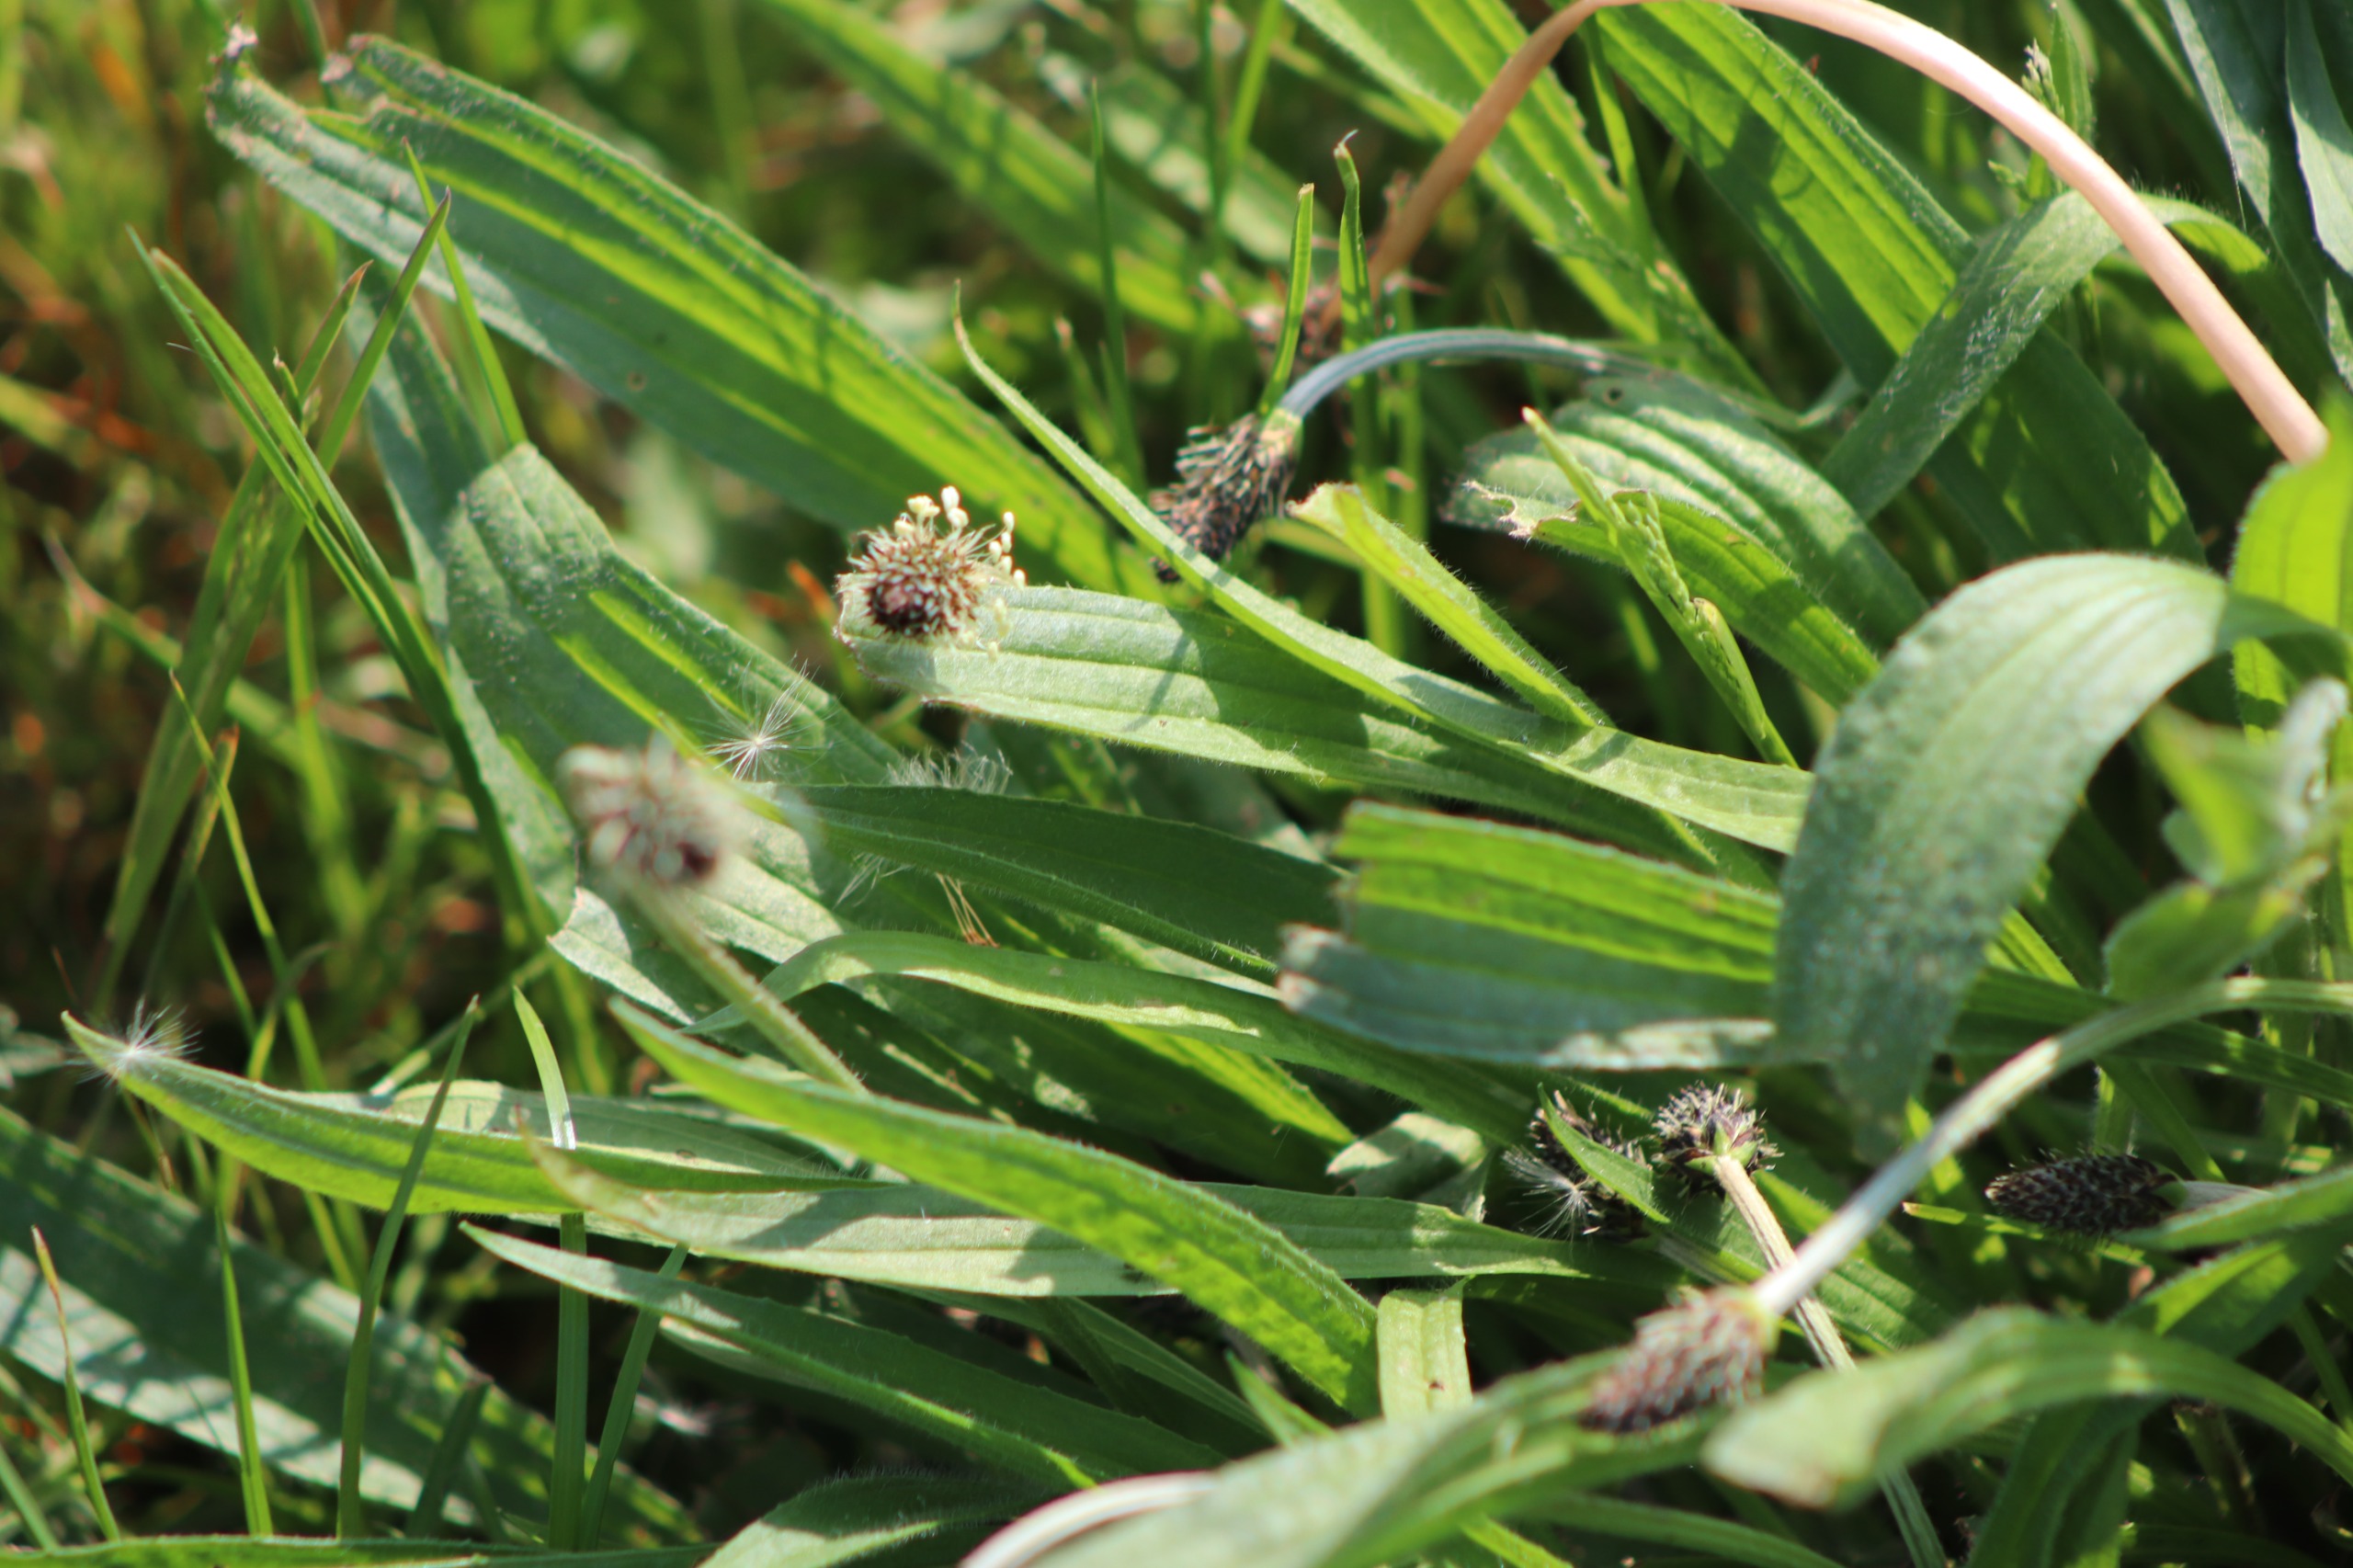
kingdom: Plantae
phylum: Tracheophyta
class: Magnoliopsida
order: Lamiales
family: Plantaginaceae
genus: Plantago
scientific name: Plantago lanceolata
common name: Lancet-vejbred
